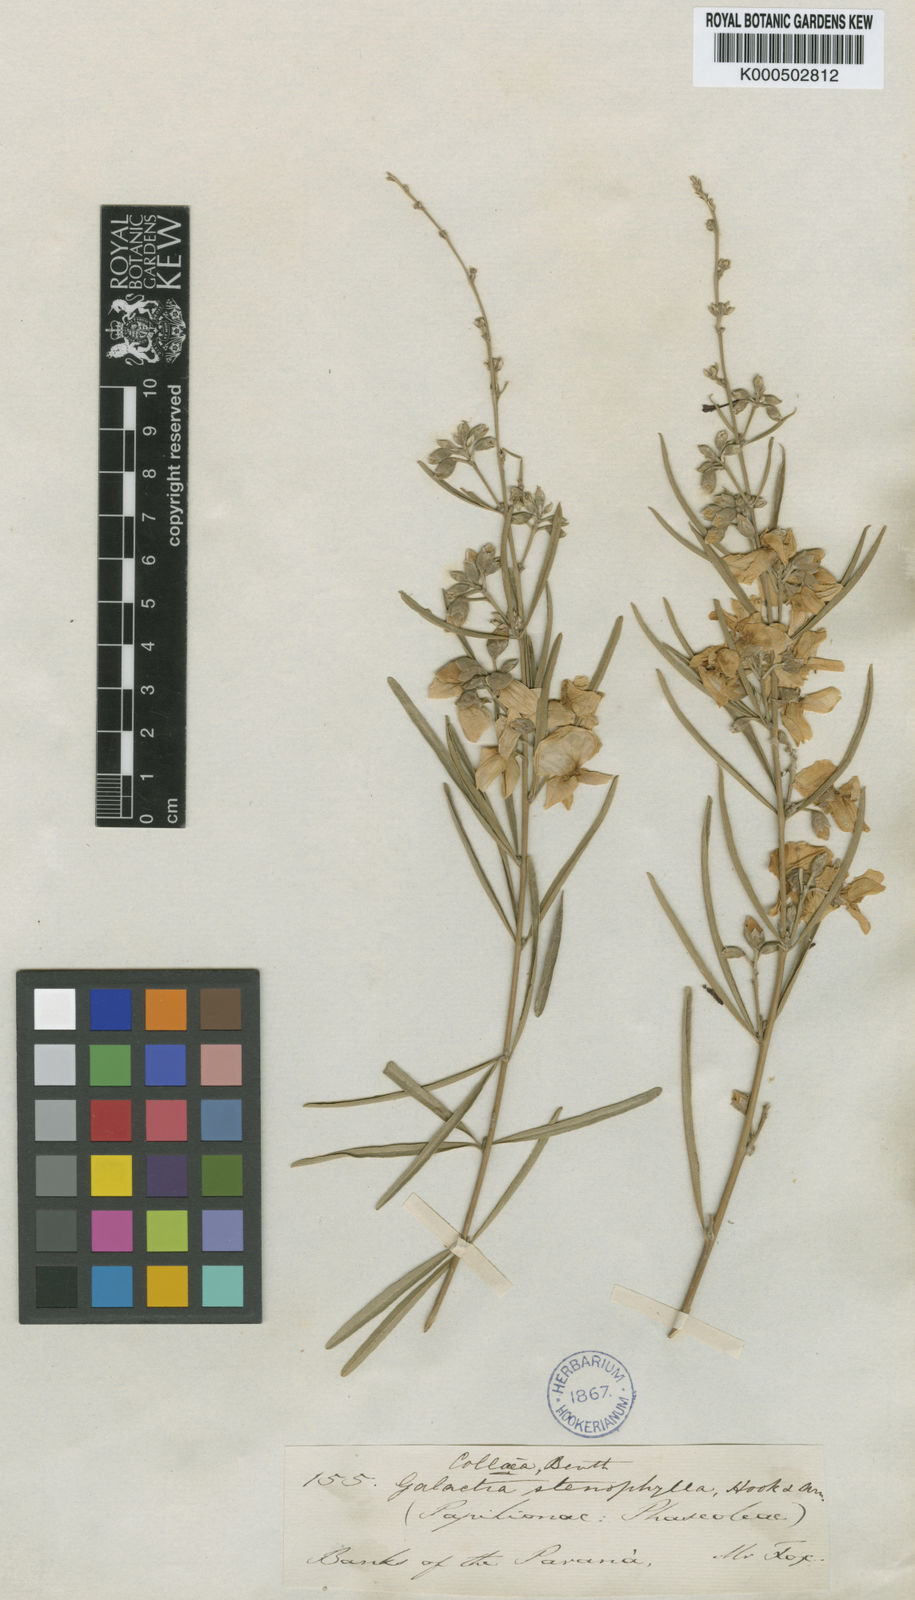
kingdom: Plantae
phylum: Tracheophyta
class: Magnoliopsida
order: Fabales
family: Fabaceae
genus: Collaea
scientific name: Collaea stenophylla
